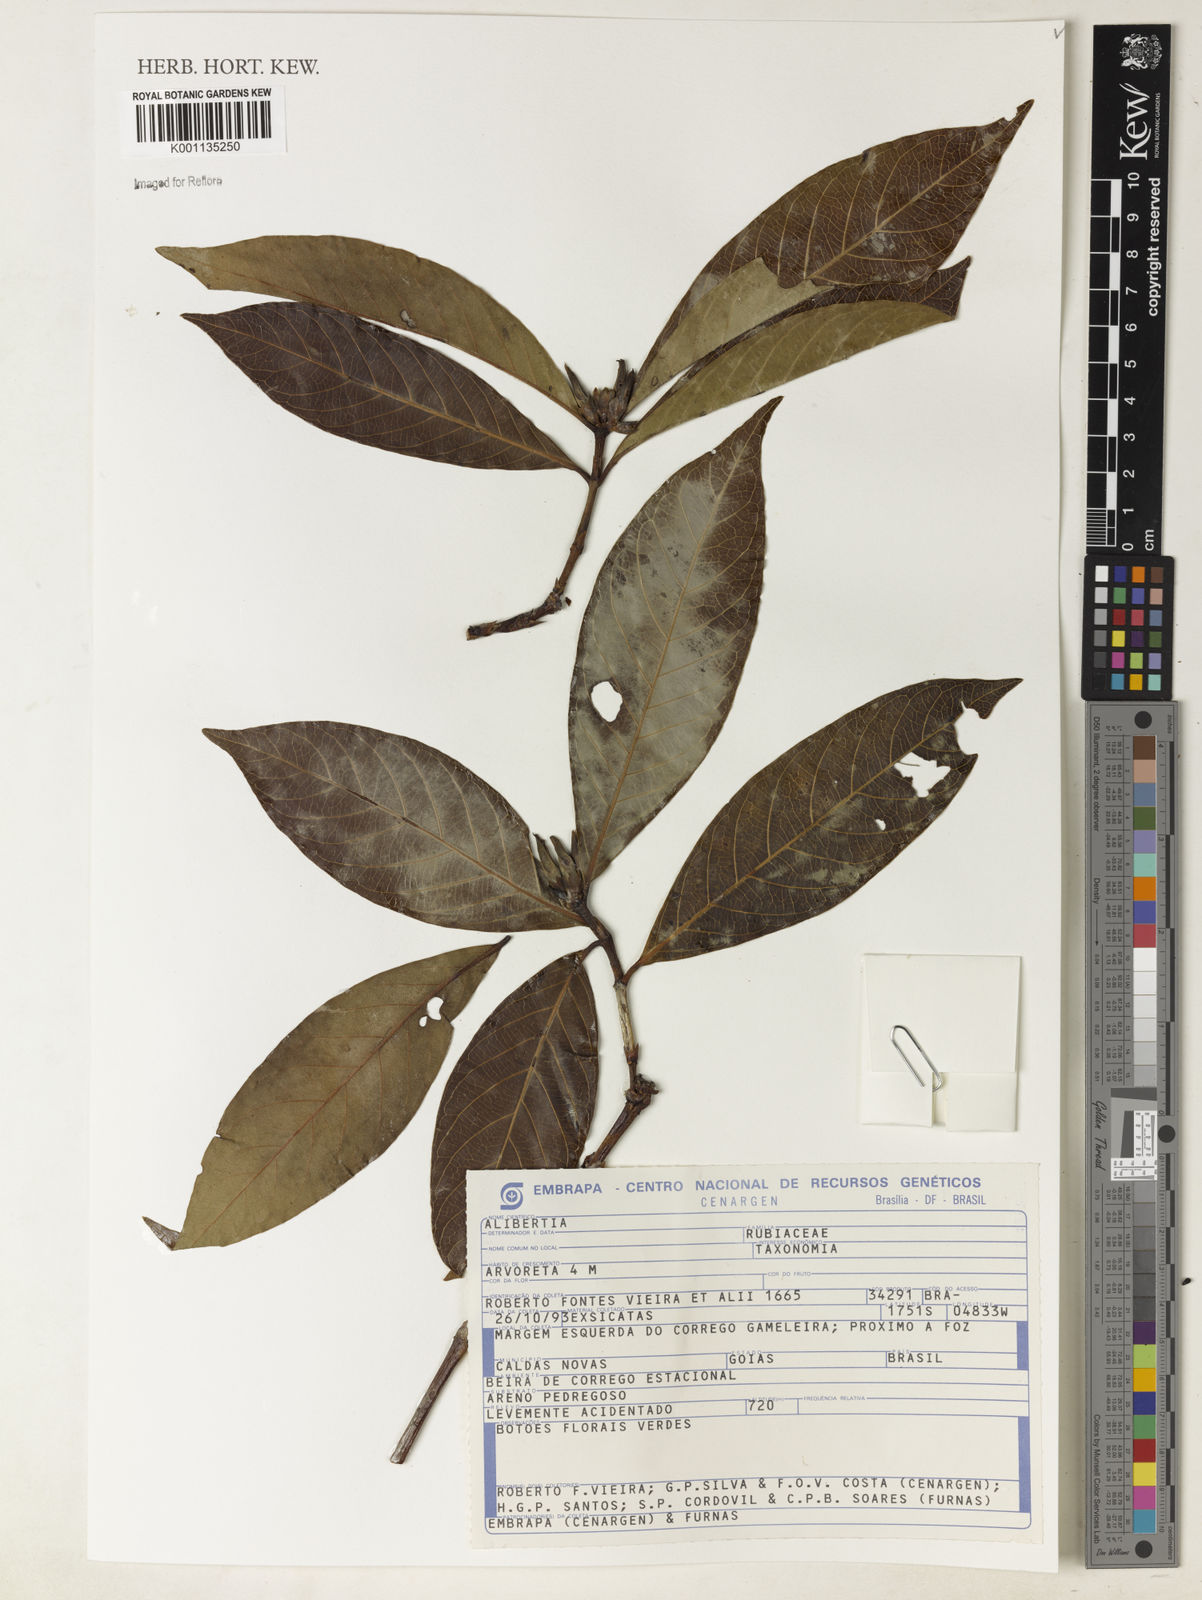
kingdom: Plantae
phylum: Tracheophyta
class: Magnoliopsida
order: Gentianales
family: Rubiaceae
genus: Alibertia
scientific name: Alibertia edulis
